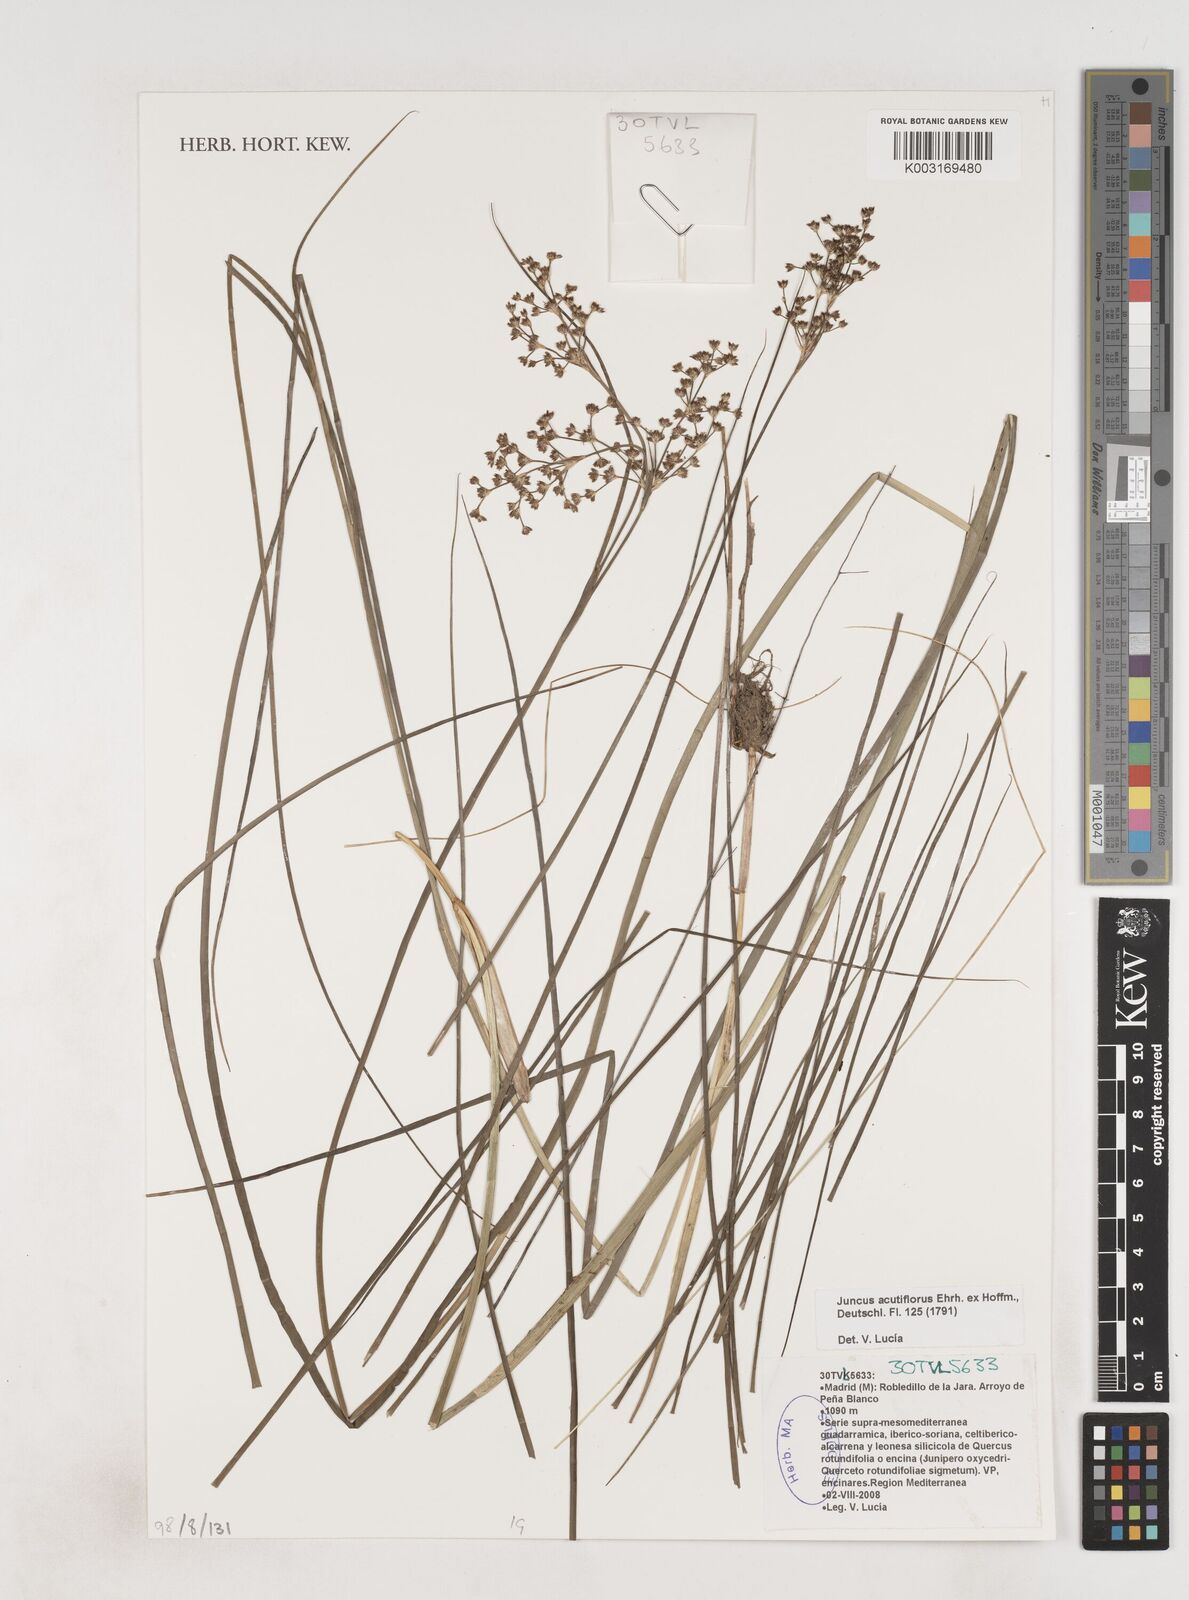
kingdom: Plantae
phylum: Tracheophyta
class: Liliopsida
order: Poales
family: Juncaceae
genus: Juncus
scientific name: Juncus acutiflorus
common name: Sharp-flowered rush
